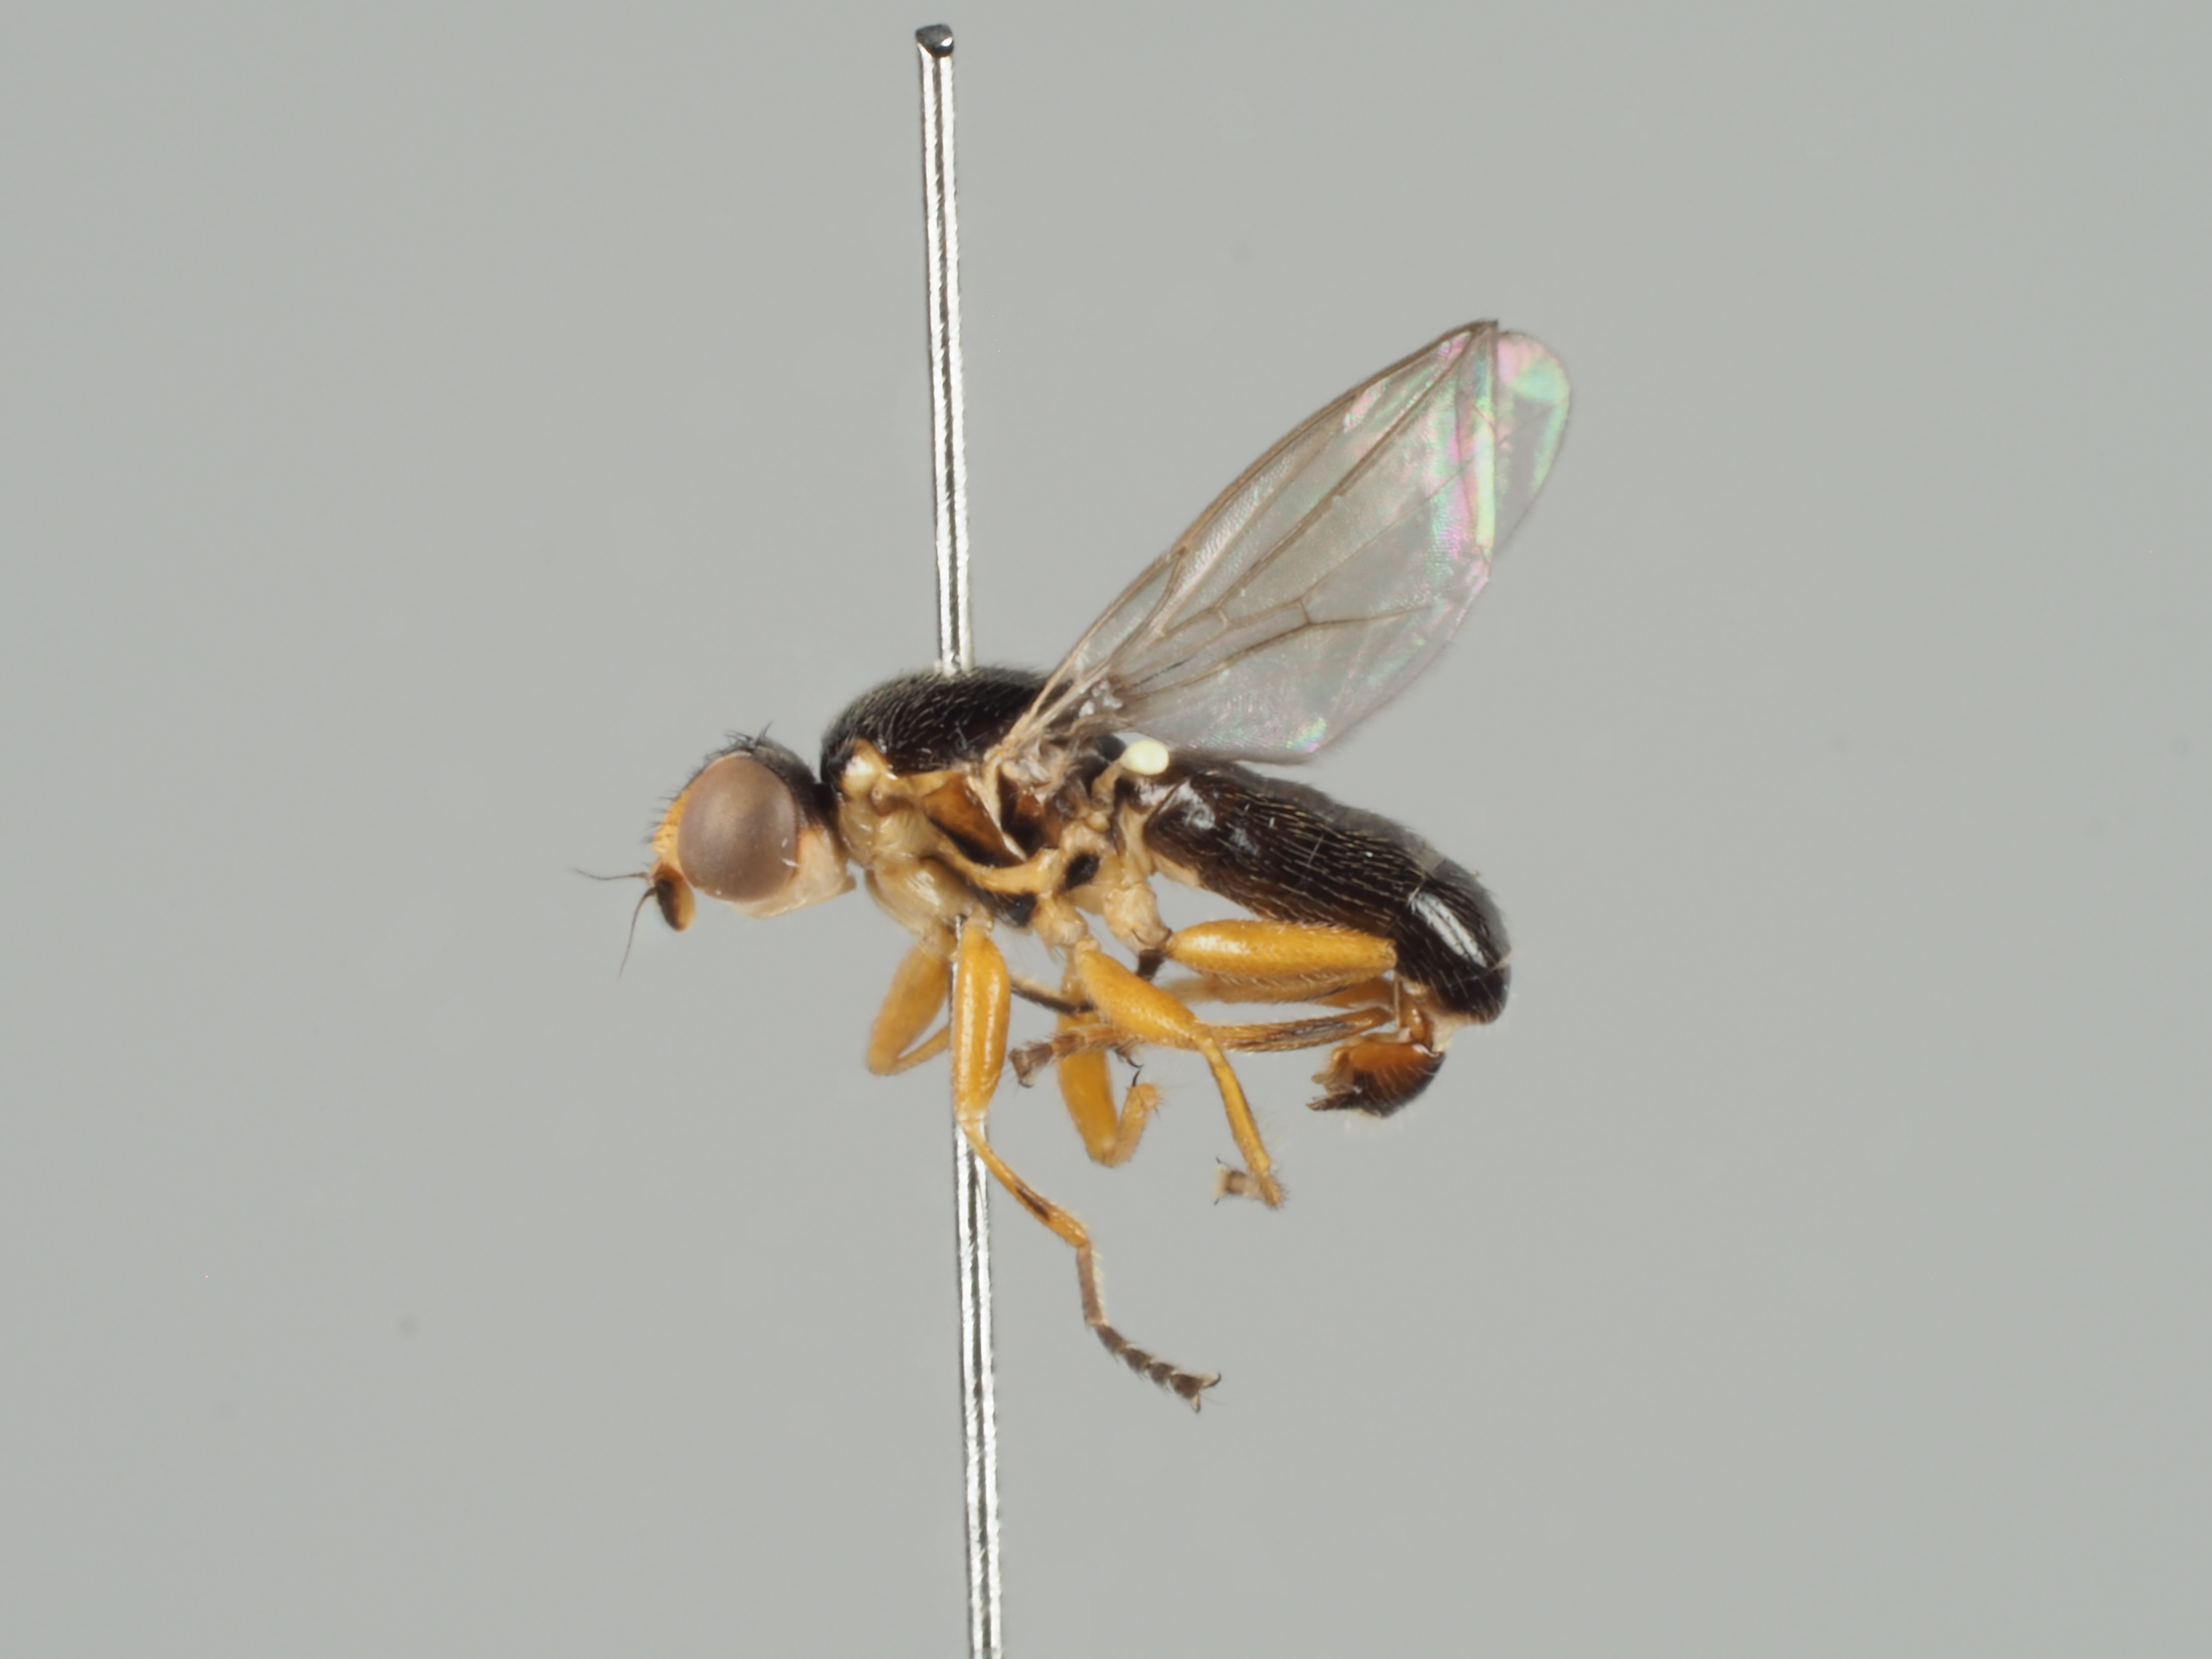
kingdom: Animalia
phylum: Arthropoda
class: Insecta
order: Diptera
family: Chloropidae
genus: Cetema
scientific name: Cetema neglectum
